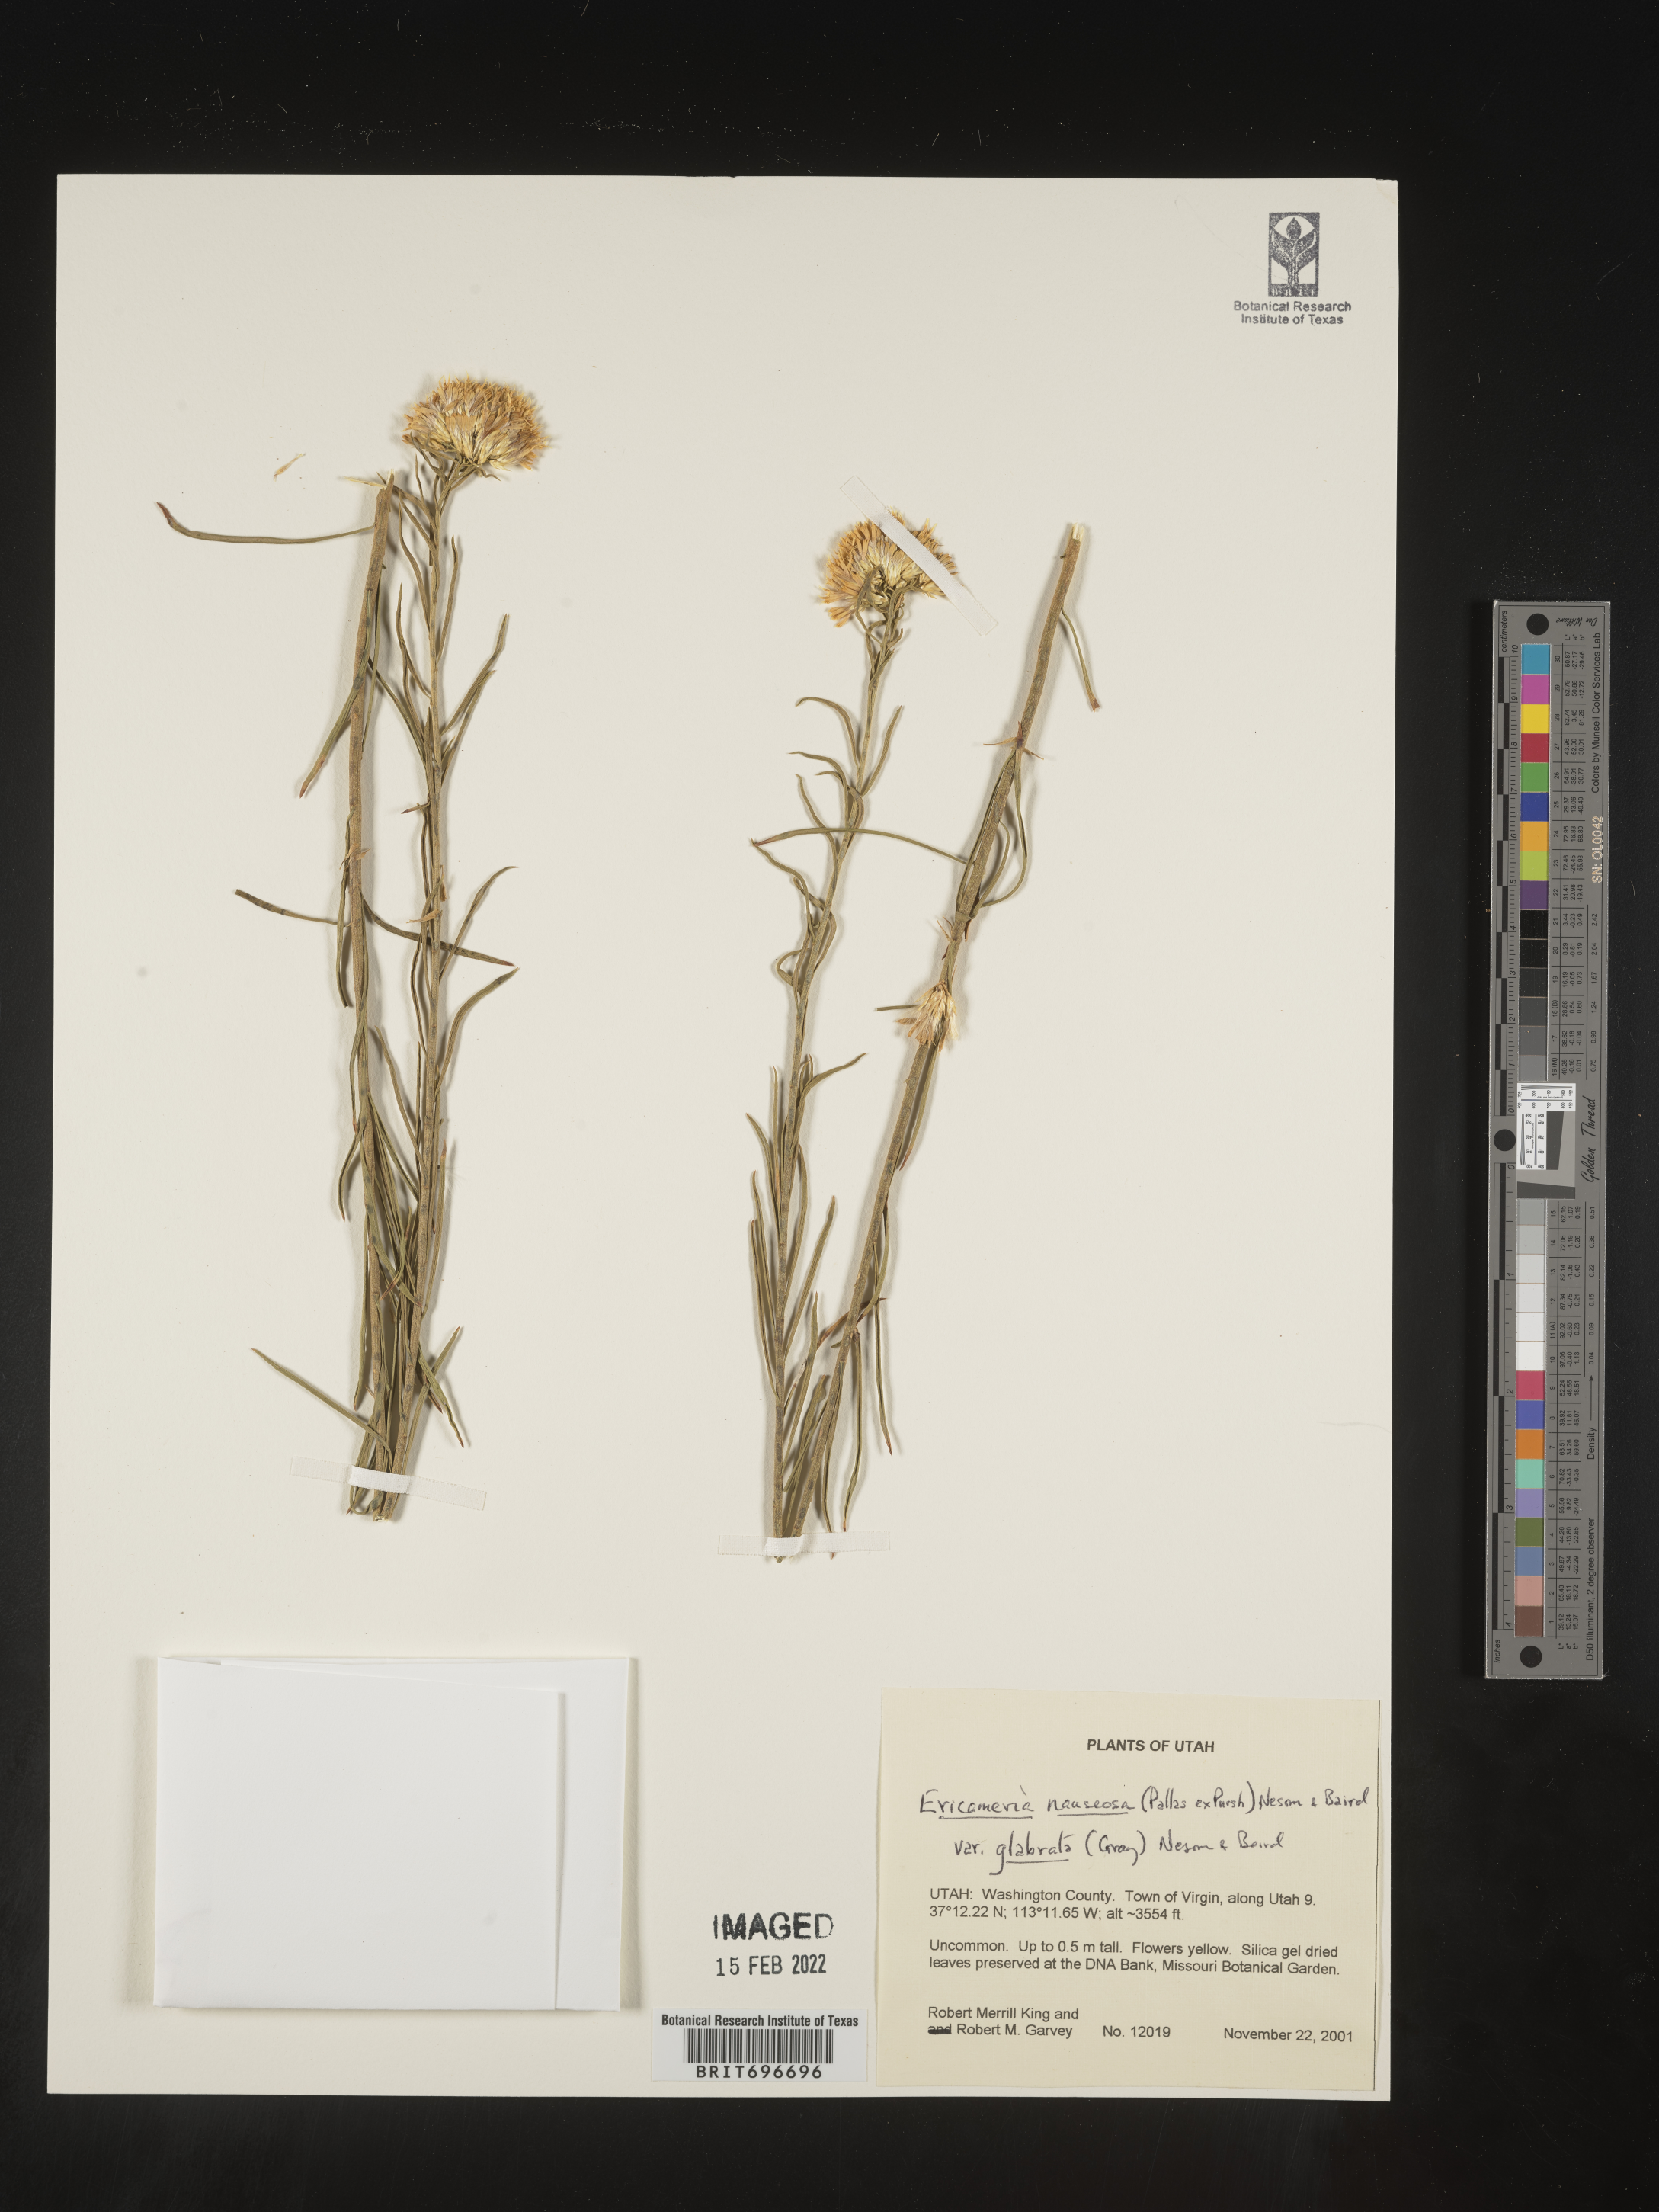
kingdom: Plantae
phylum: Tracheophyta
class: Magnoliopsida
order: Asterales
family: Asteraceae
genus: Ericameria
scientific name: Ericameria nauseosa
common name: Rubber rabbitbrush
